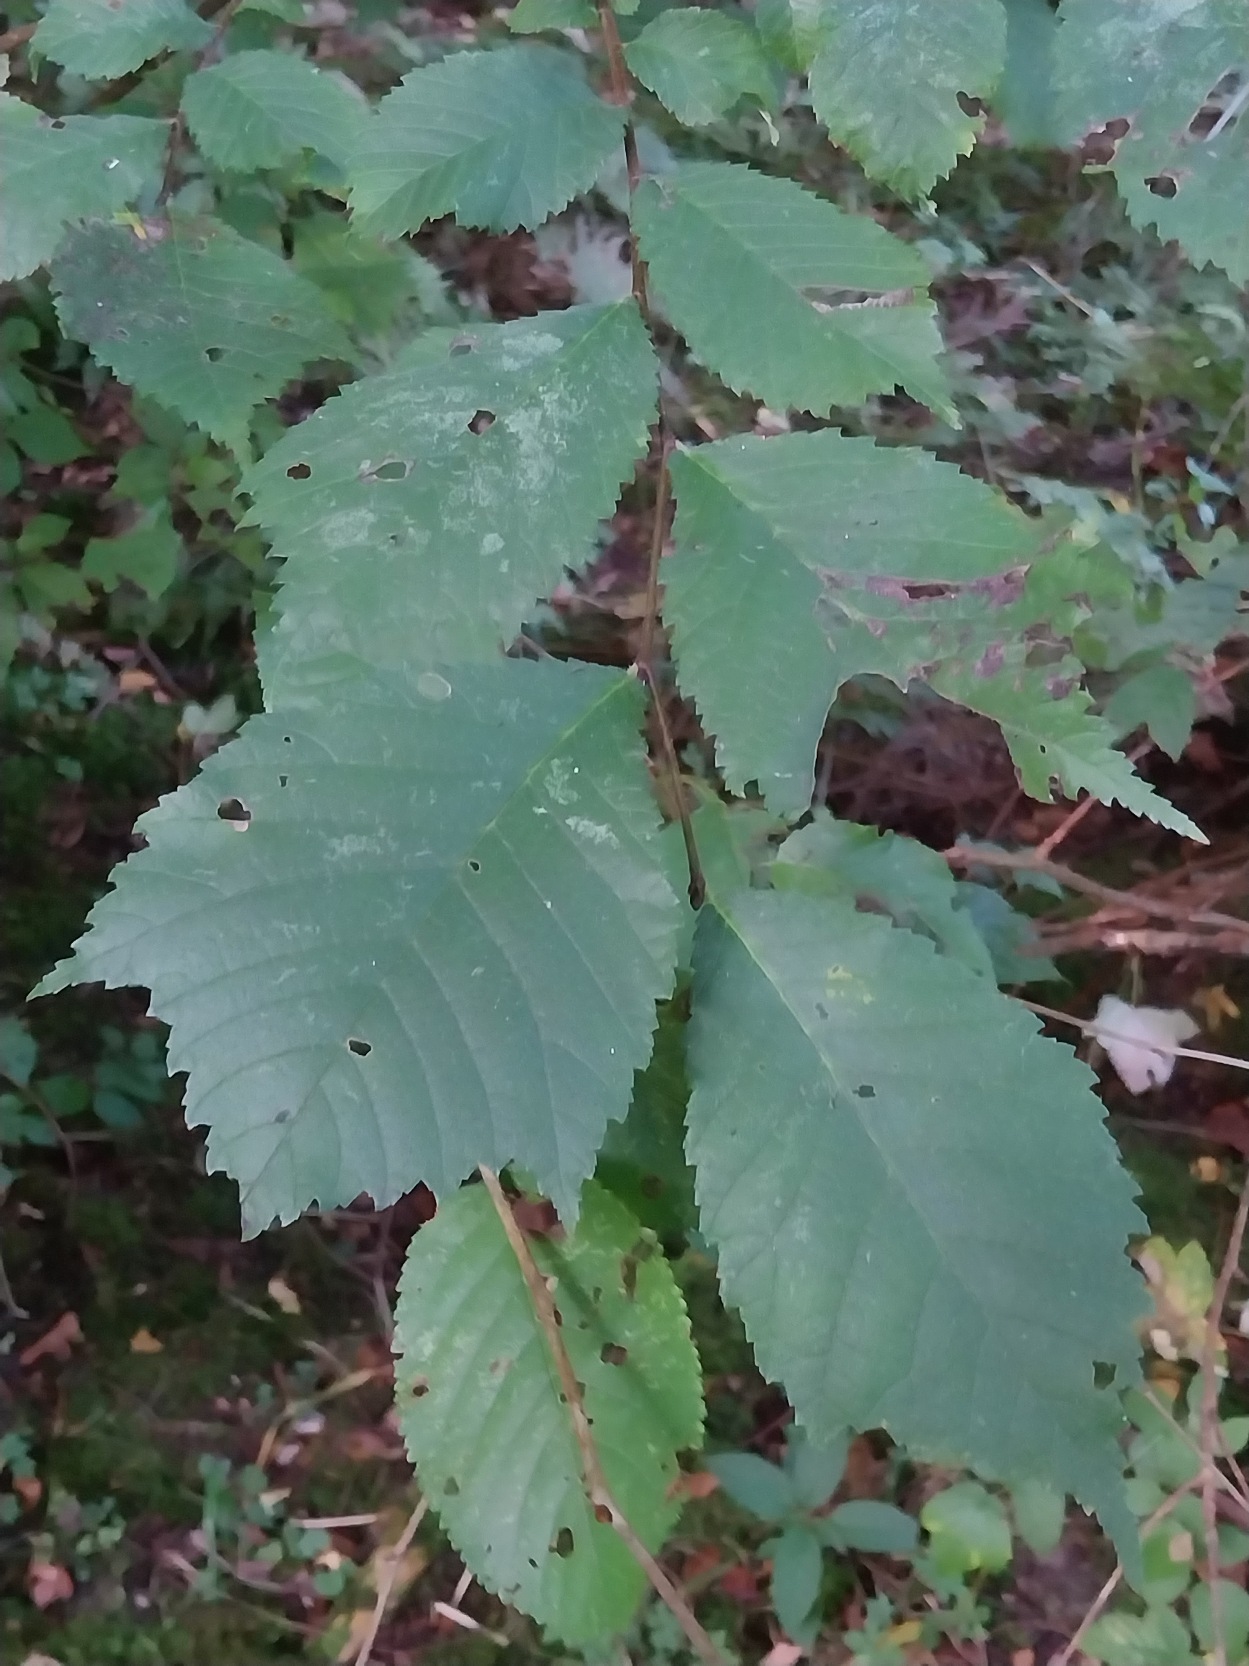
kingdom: Plantae
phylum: Tracheophyta
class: Magnoliopsida
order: Rosales
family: Ulmaceae
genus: Ulmus
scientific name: Ulmus glabra
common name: Skov-elm/storbladet elm
